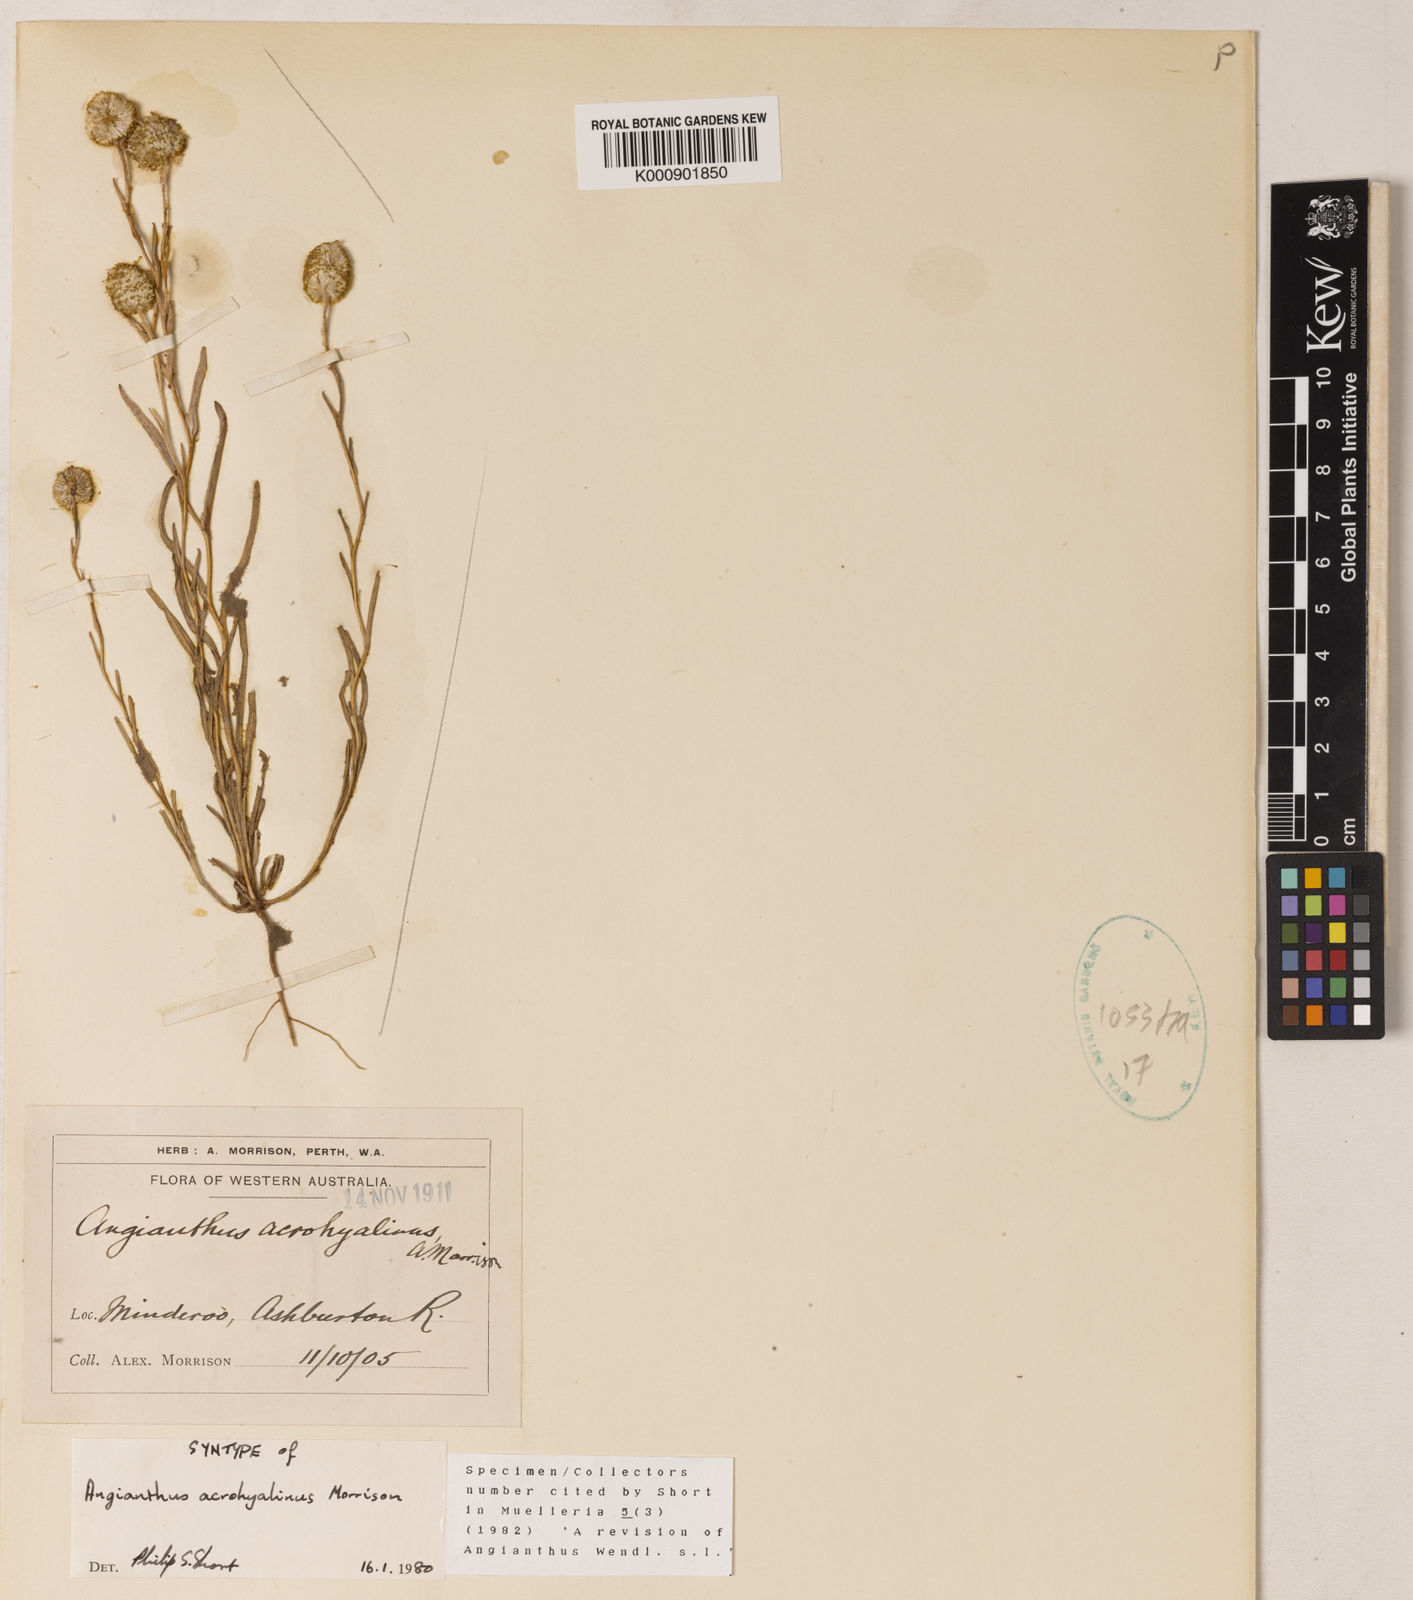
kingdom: Plantae
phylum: Tracheophyta
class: Magnoliopsida
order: Asterales
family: Asteraceae
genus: Angianthus
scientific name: Angianthus acrohyalinus
